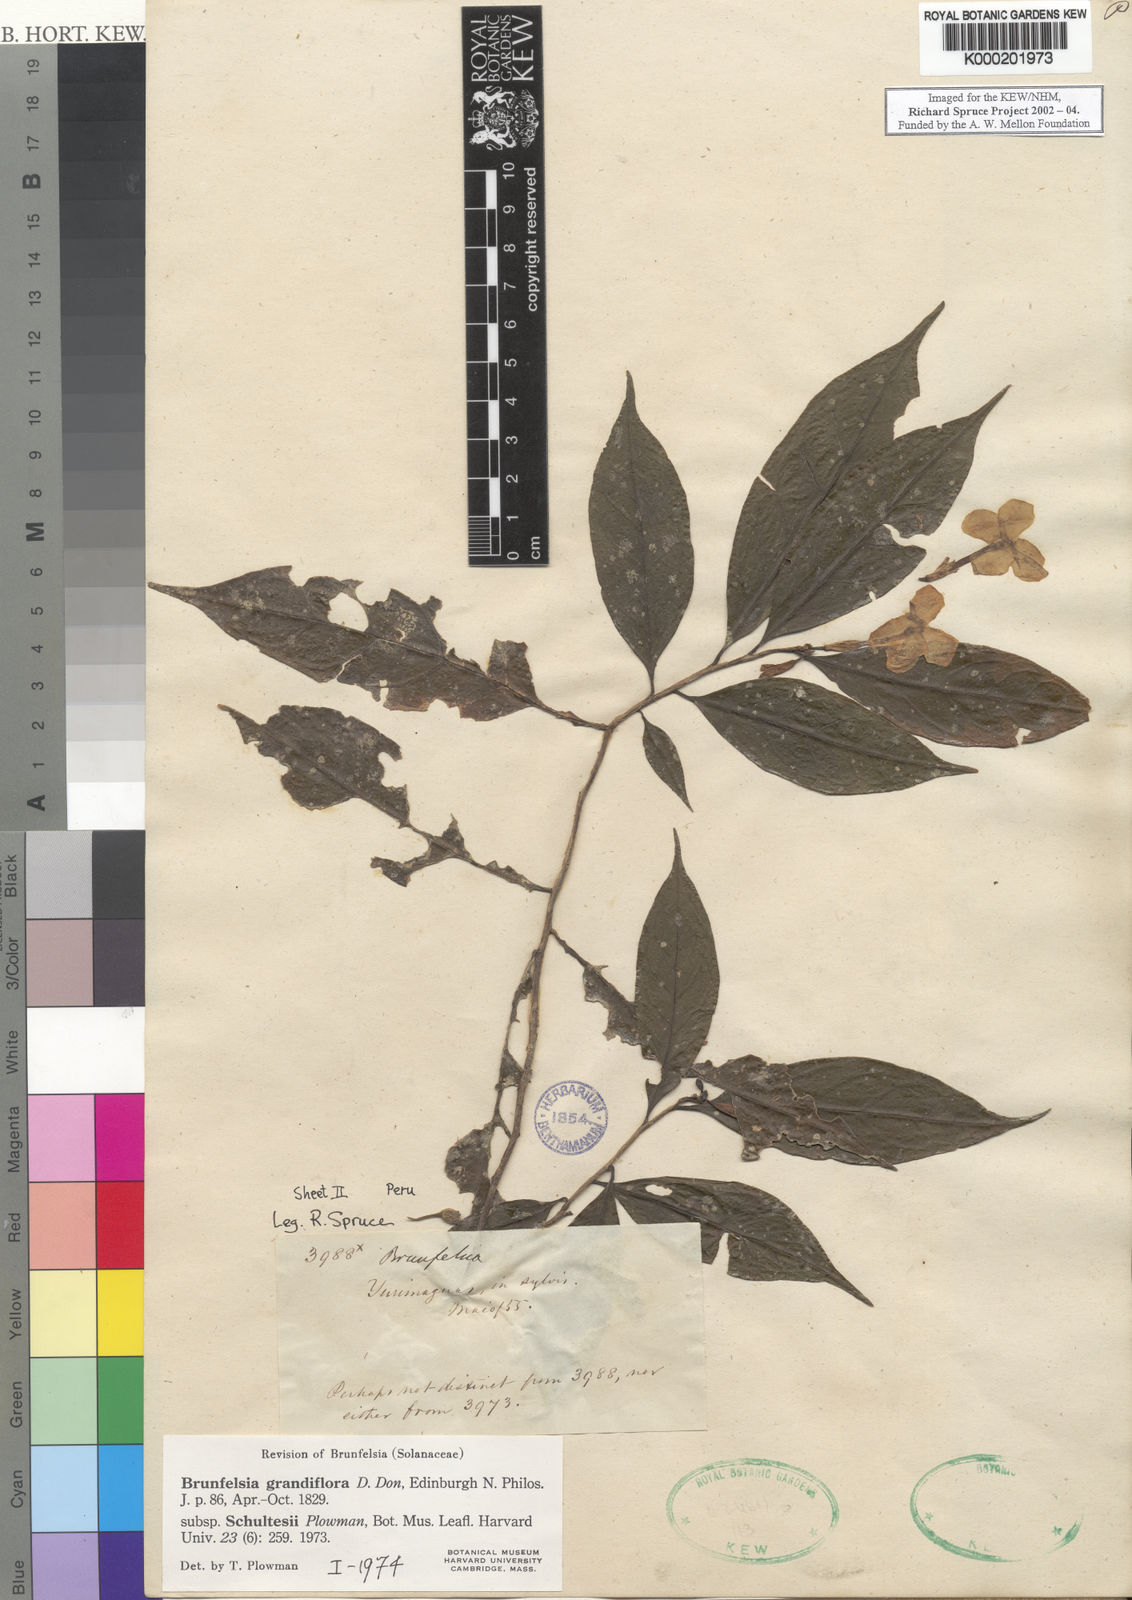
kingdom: Plantae
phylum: Tracheophyta
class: Magnoliopsida
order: Solanales
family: Solanaceae
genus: Brunfelsia
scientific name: Brunfelsia grandiflora
